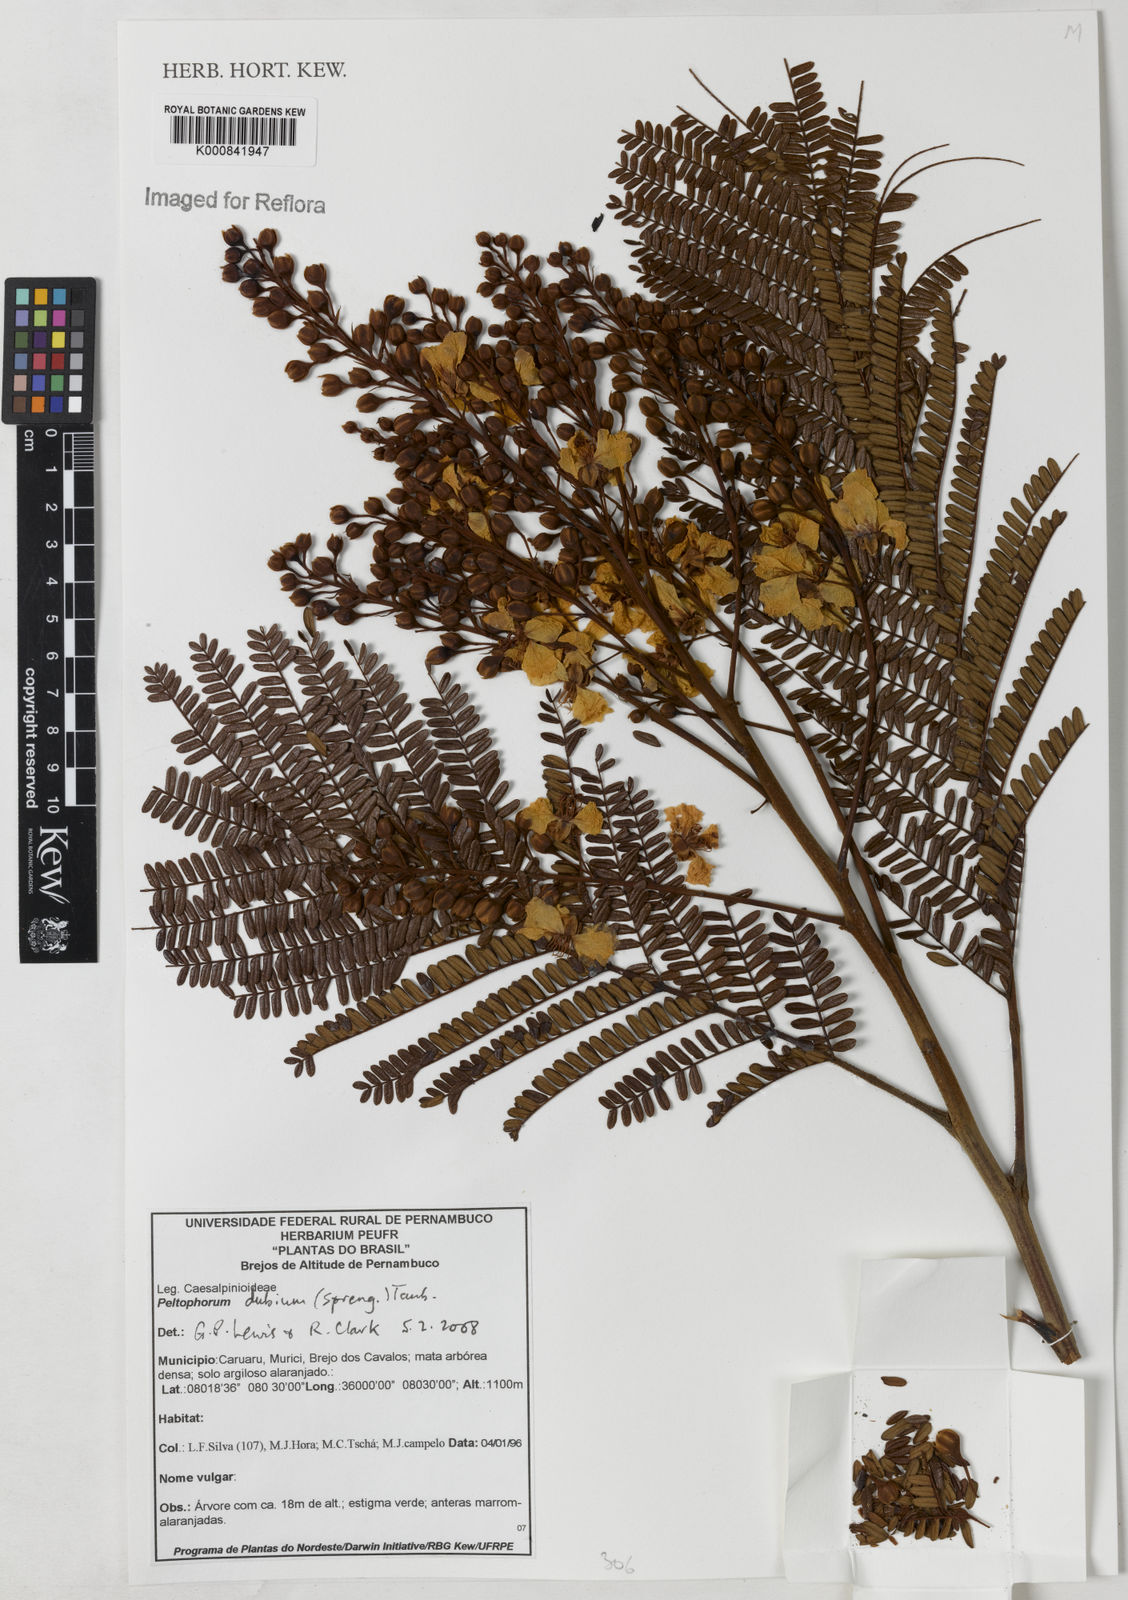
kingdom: Plantae
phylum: Tracheophyta
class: Magnoliopsida
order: Fabales
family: Fabaceae
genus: Peltophorum
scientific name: Peltophorum dubium
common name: Horsebush
